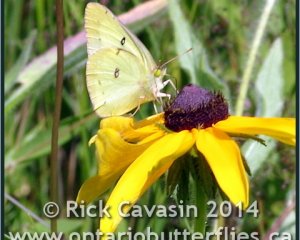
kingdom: Animalia
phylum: Arthropoda
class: Insecta
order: Lepidoptera
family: Pieridae
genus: Colias
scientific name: Colias philodice
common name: Clouded Sulphur
